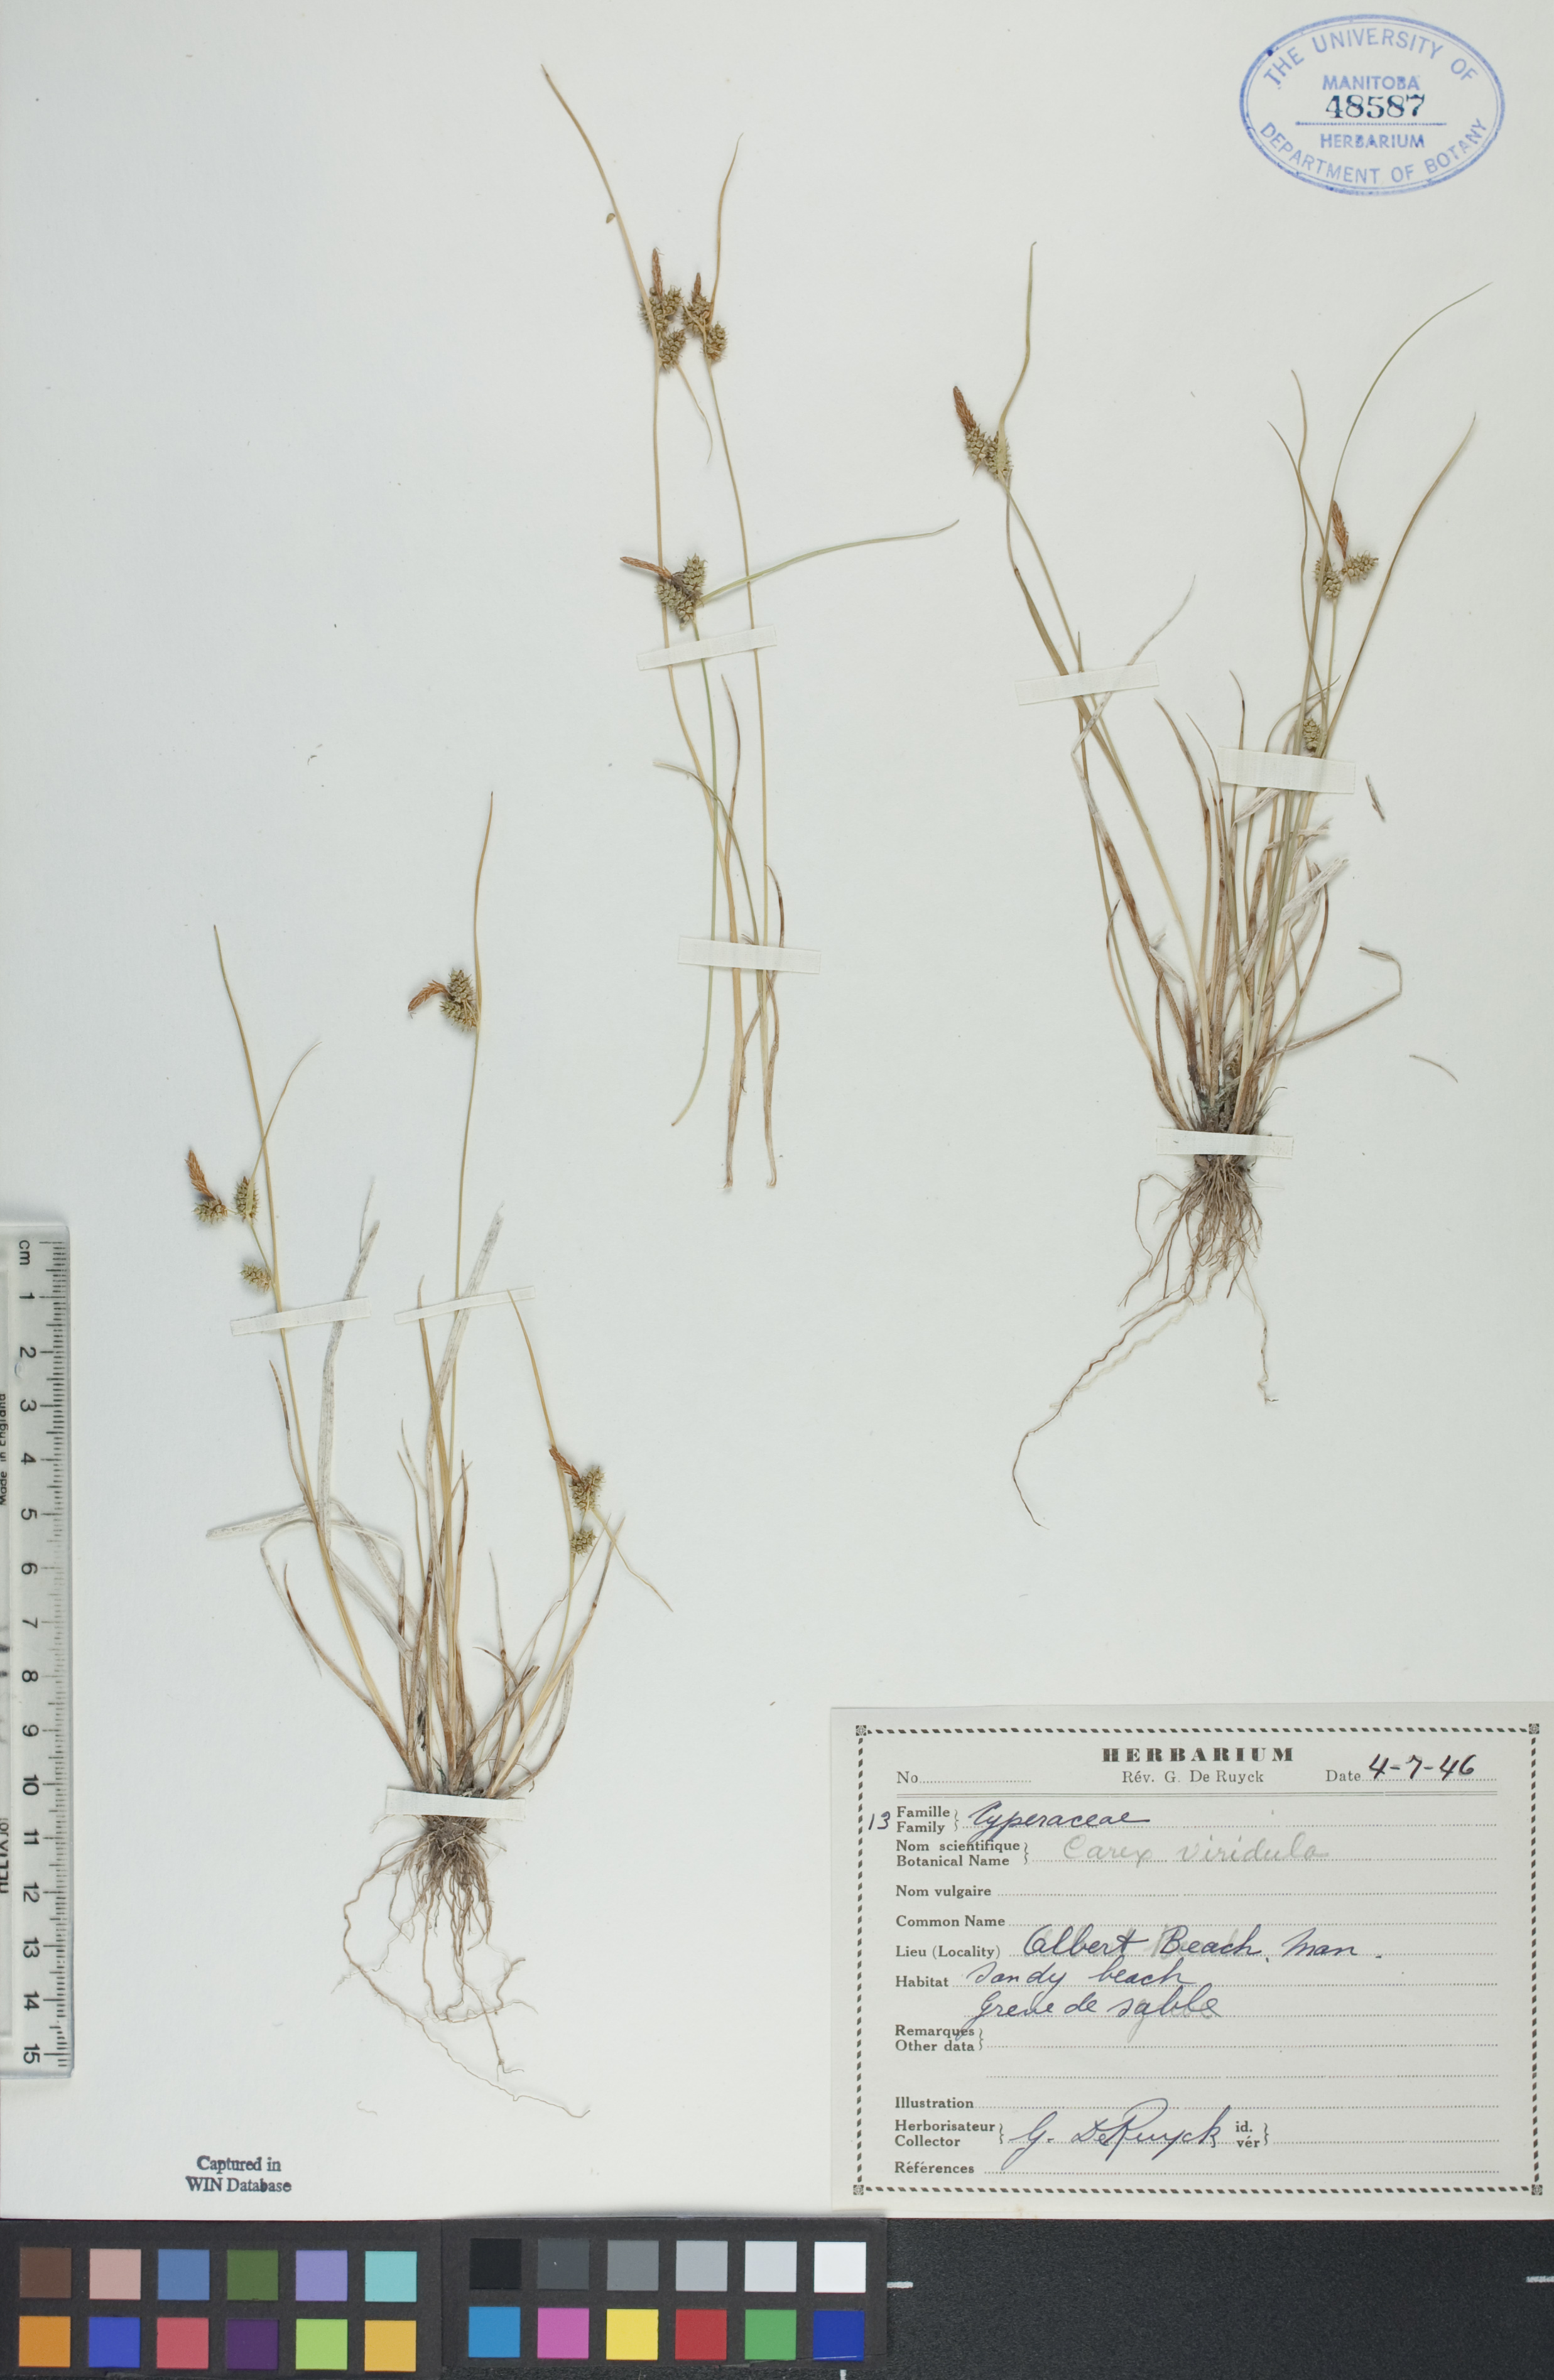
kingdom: Plantae
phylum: Tracheophyta
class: Liliopsida
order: Poales
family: Cyperaceae
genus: Carex
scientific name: Carex oederi
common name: Common & small-fruited yellow-sedge
